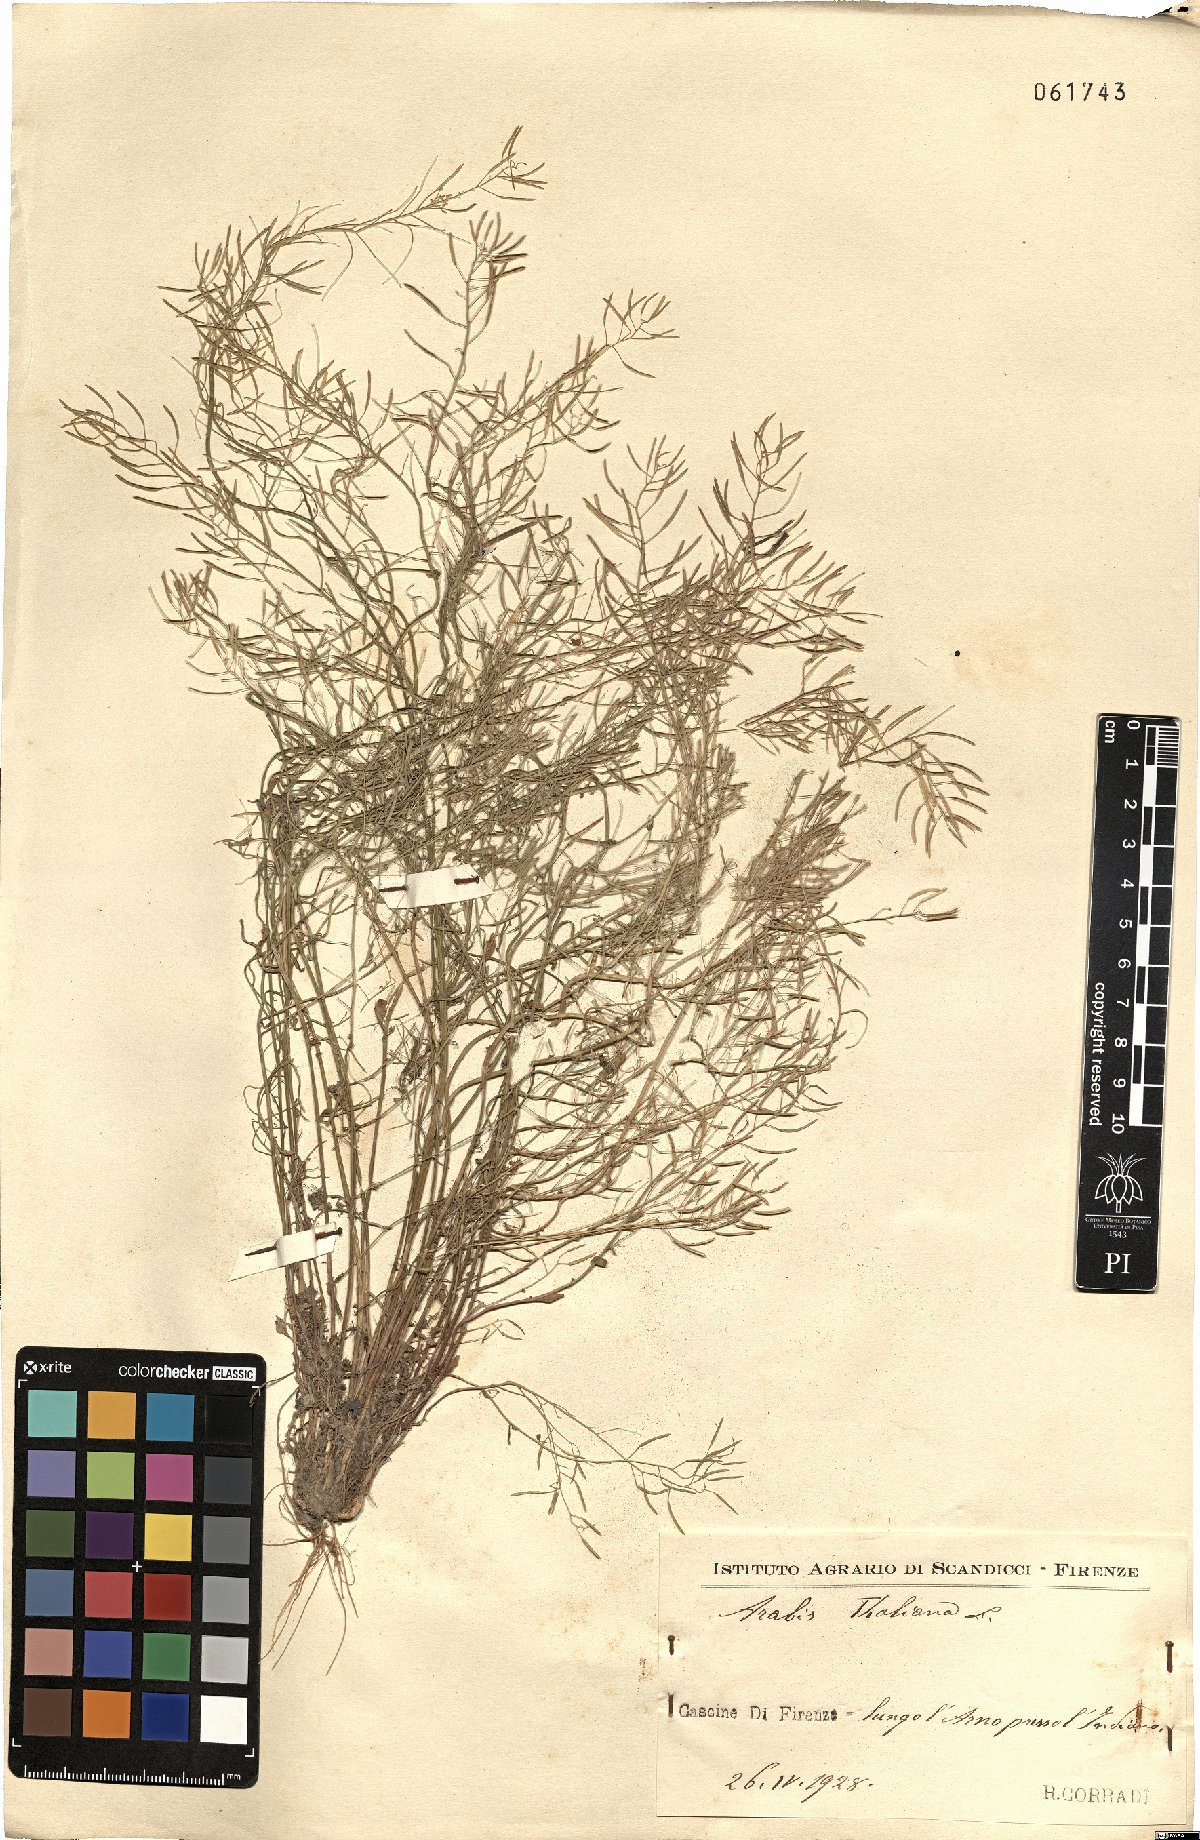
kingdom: Plantae
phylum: Tracheophyta
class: Magnoliopsida
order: Brassicales
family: Brassicaceae
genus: Arabidopsis
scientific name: Arabidopsis thaliana
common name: Thale cress
